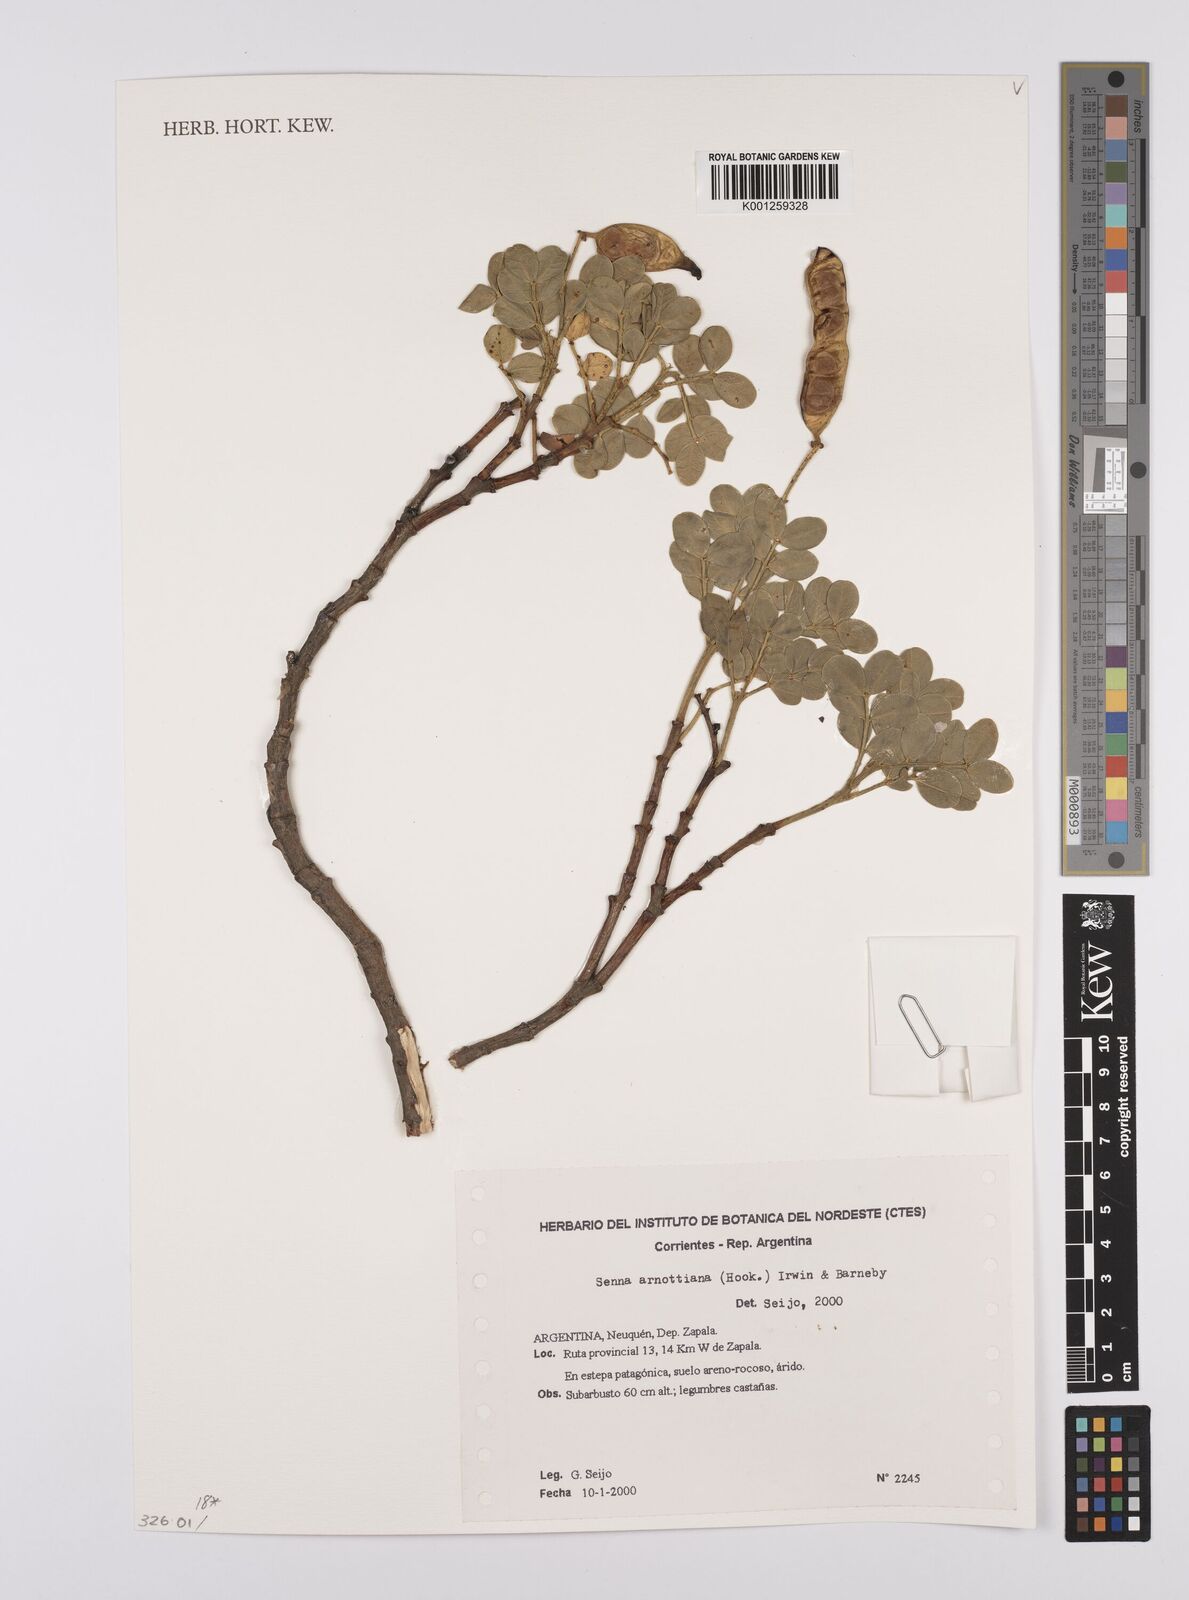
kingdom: Plantae
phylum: Tracheophyta
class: Magnoliopsida
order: Fabales
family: Fabaceae
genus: Senna
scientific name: Senna arnottiana
